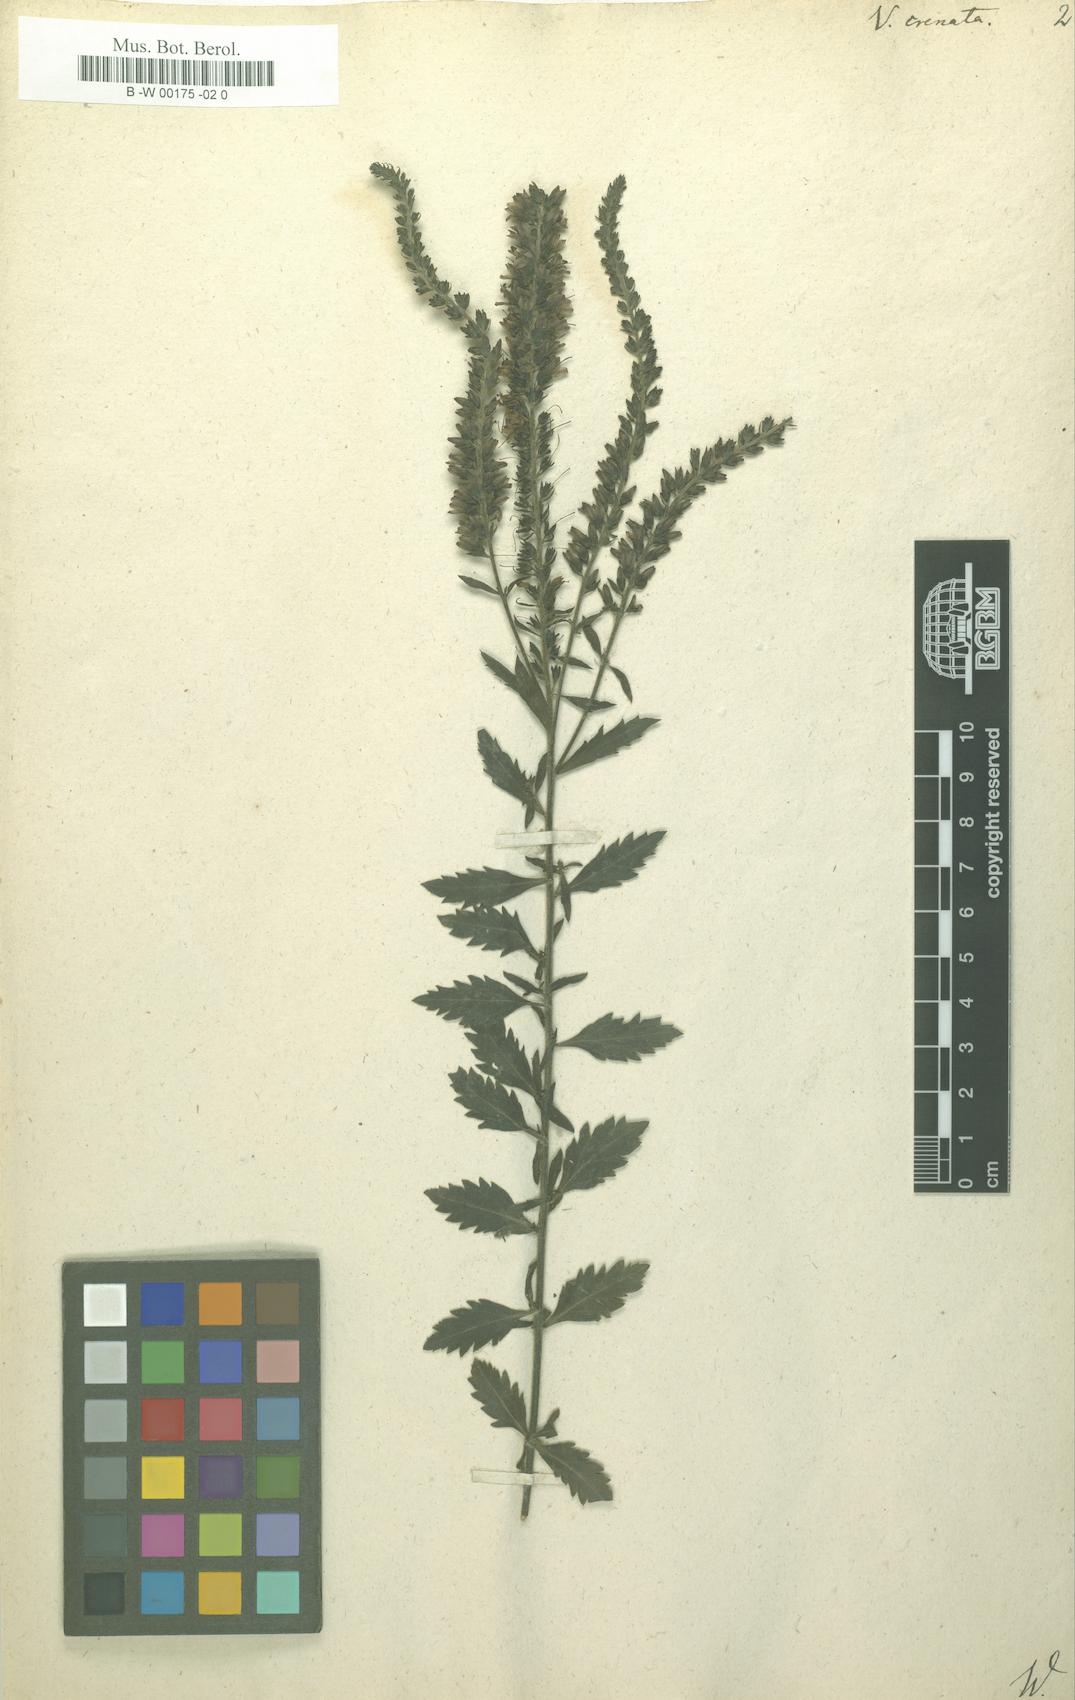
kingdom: Plantae
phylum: Tracheophyta
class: Magnoliopsida
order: Lamiales
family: Plantaginaceae
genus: Veronica
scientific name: Veronica crenata
